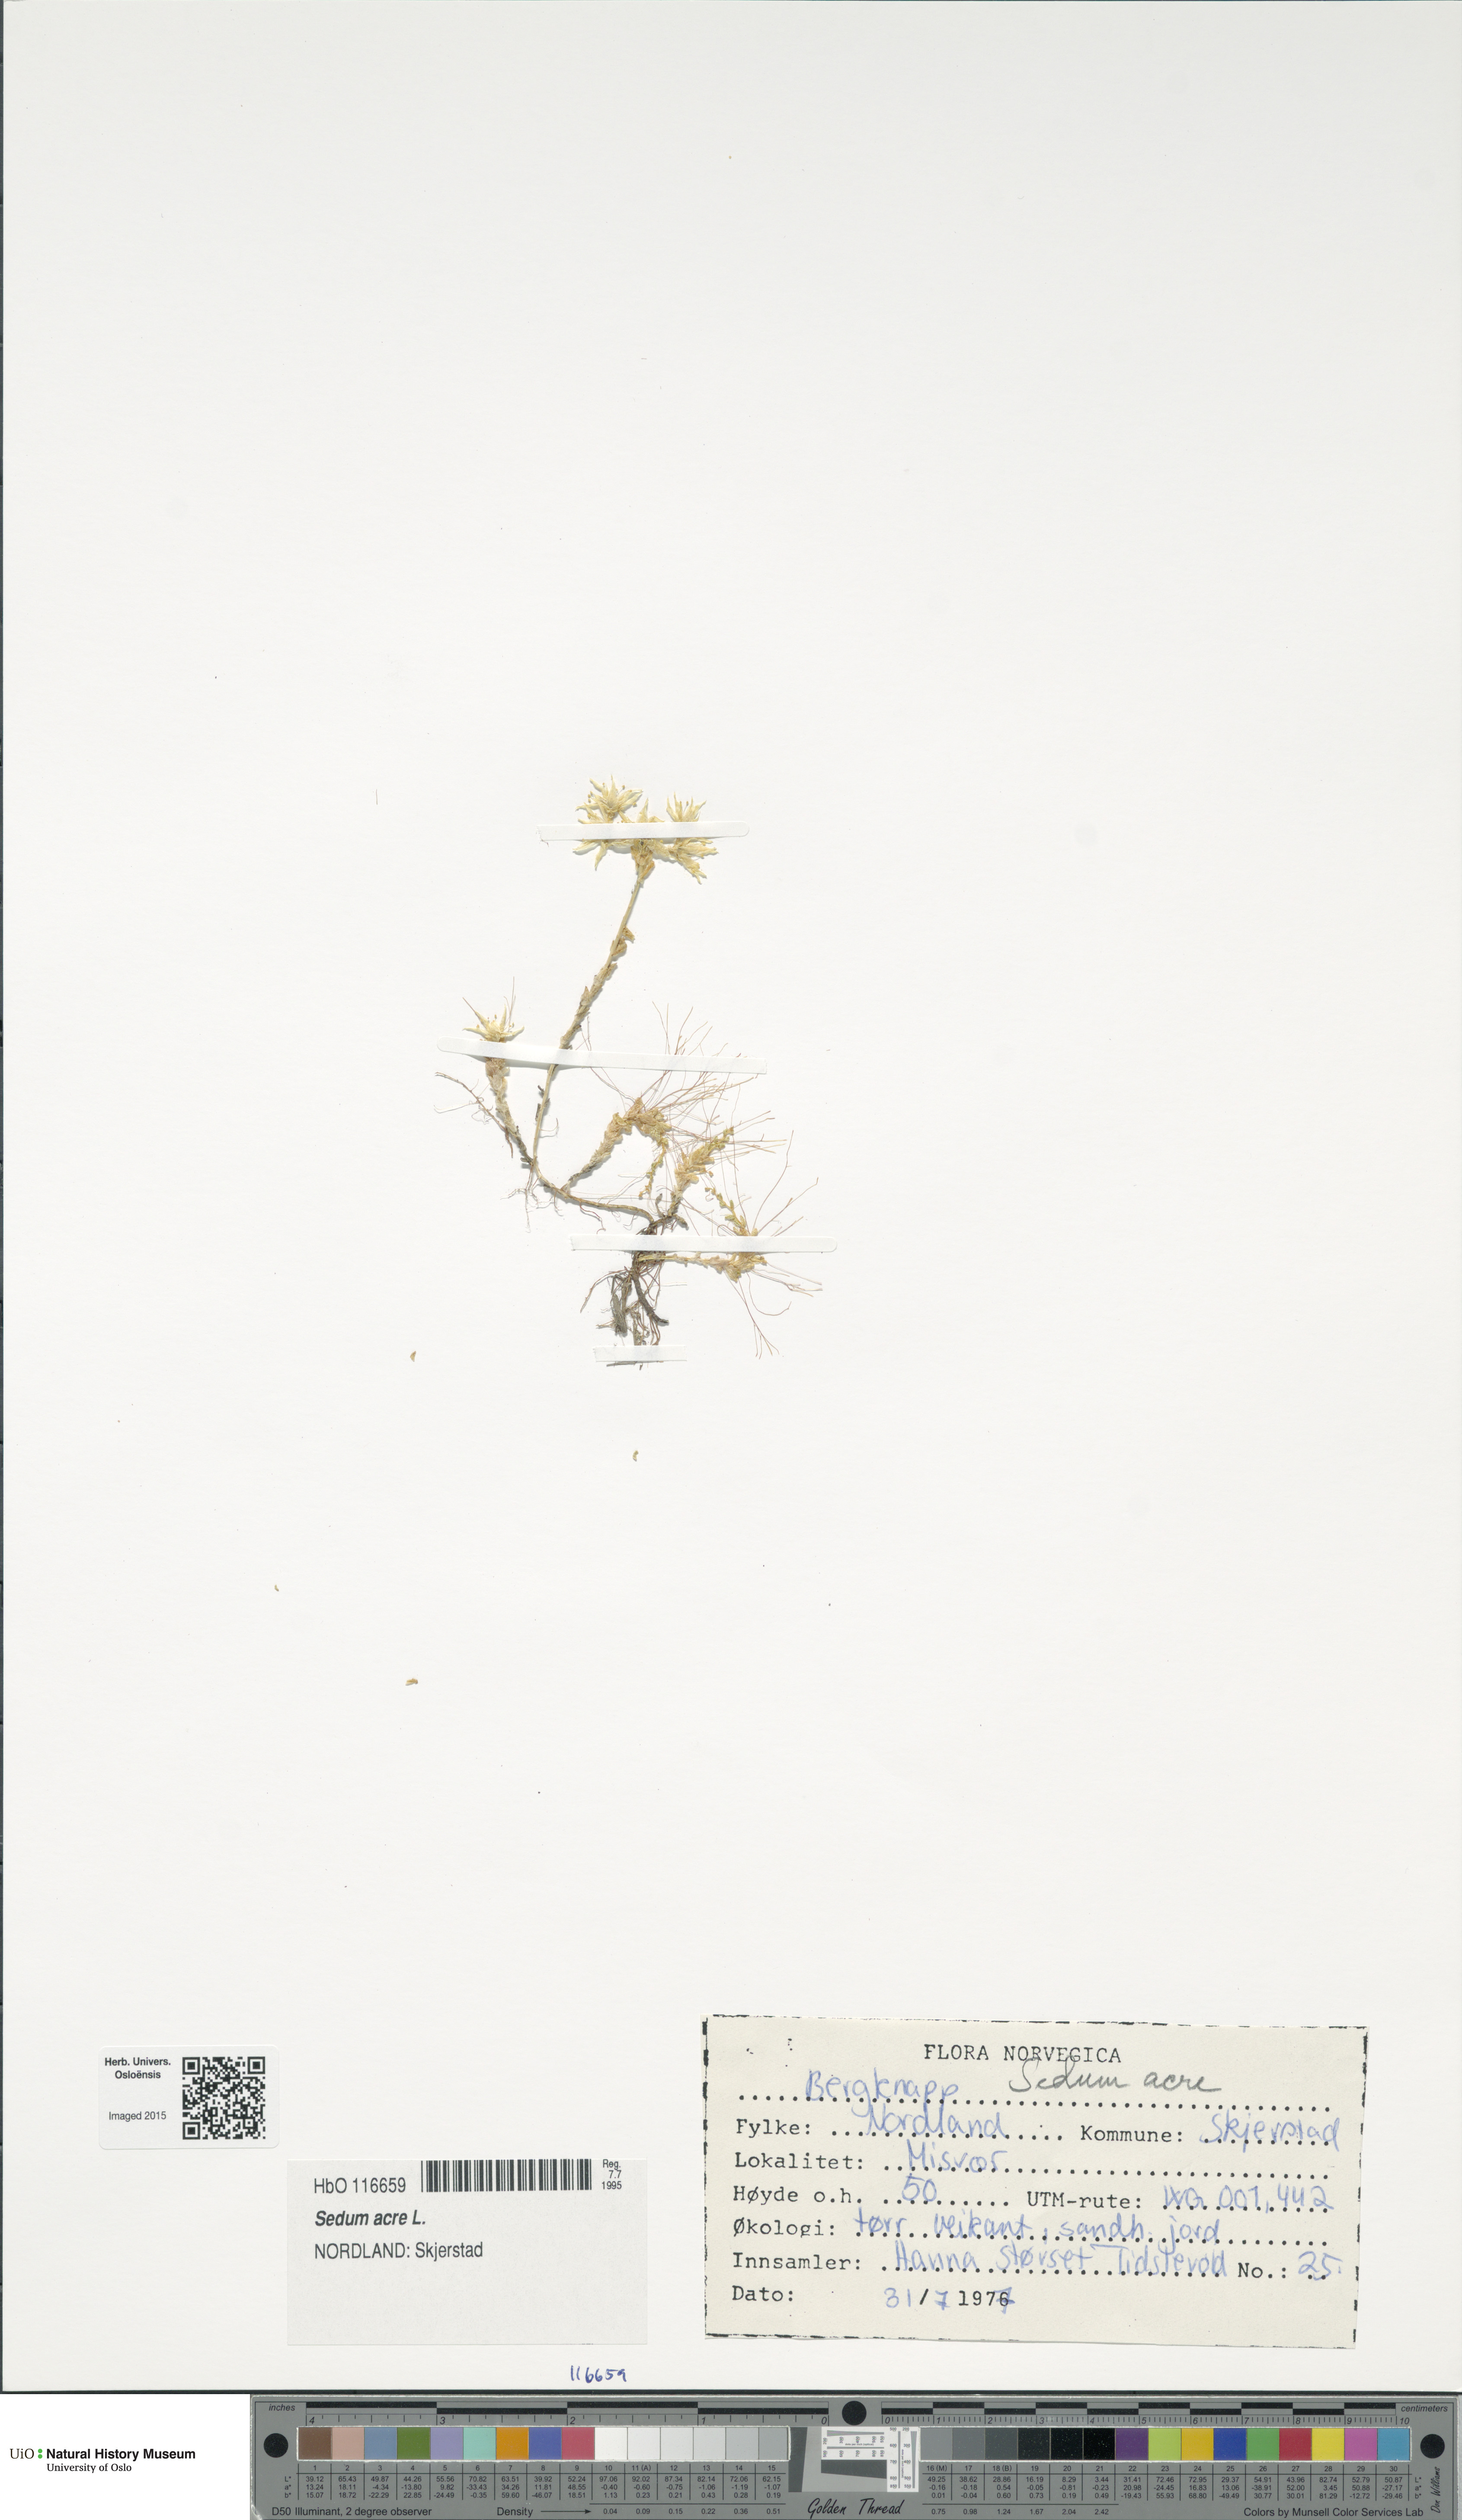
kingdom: Plantae
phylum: Tracheophyta
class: Magnoliopsida
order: Saxifragales
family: Crassulaceae
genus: Sedum
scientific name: Sedum acre
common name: Biting stonecrop
